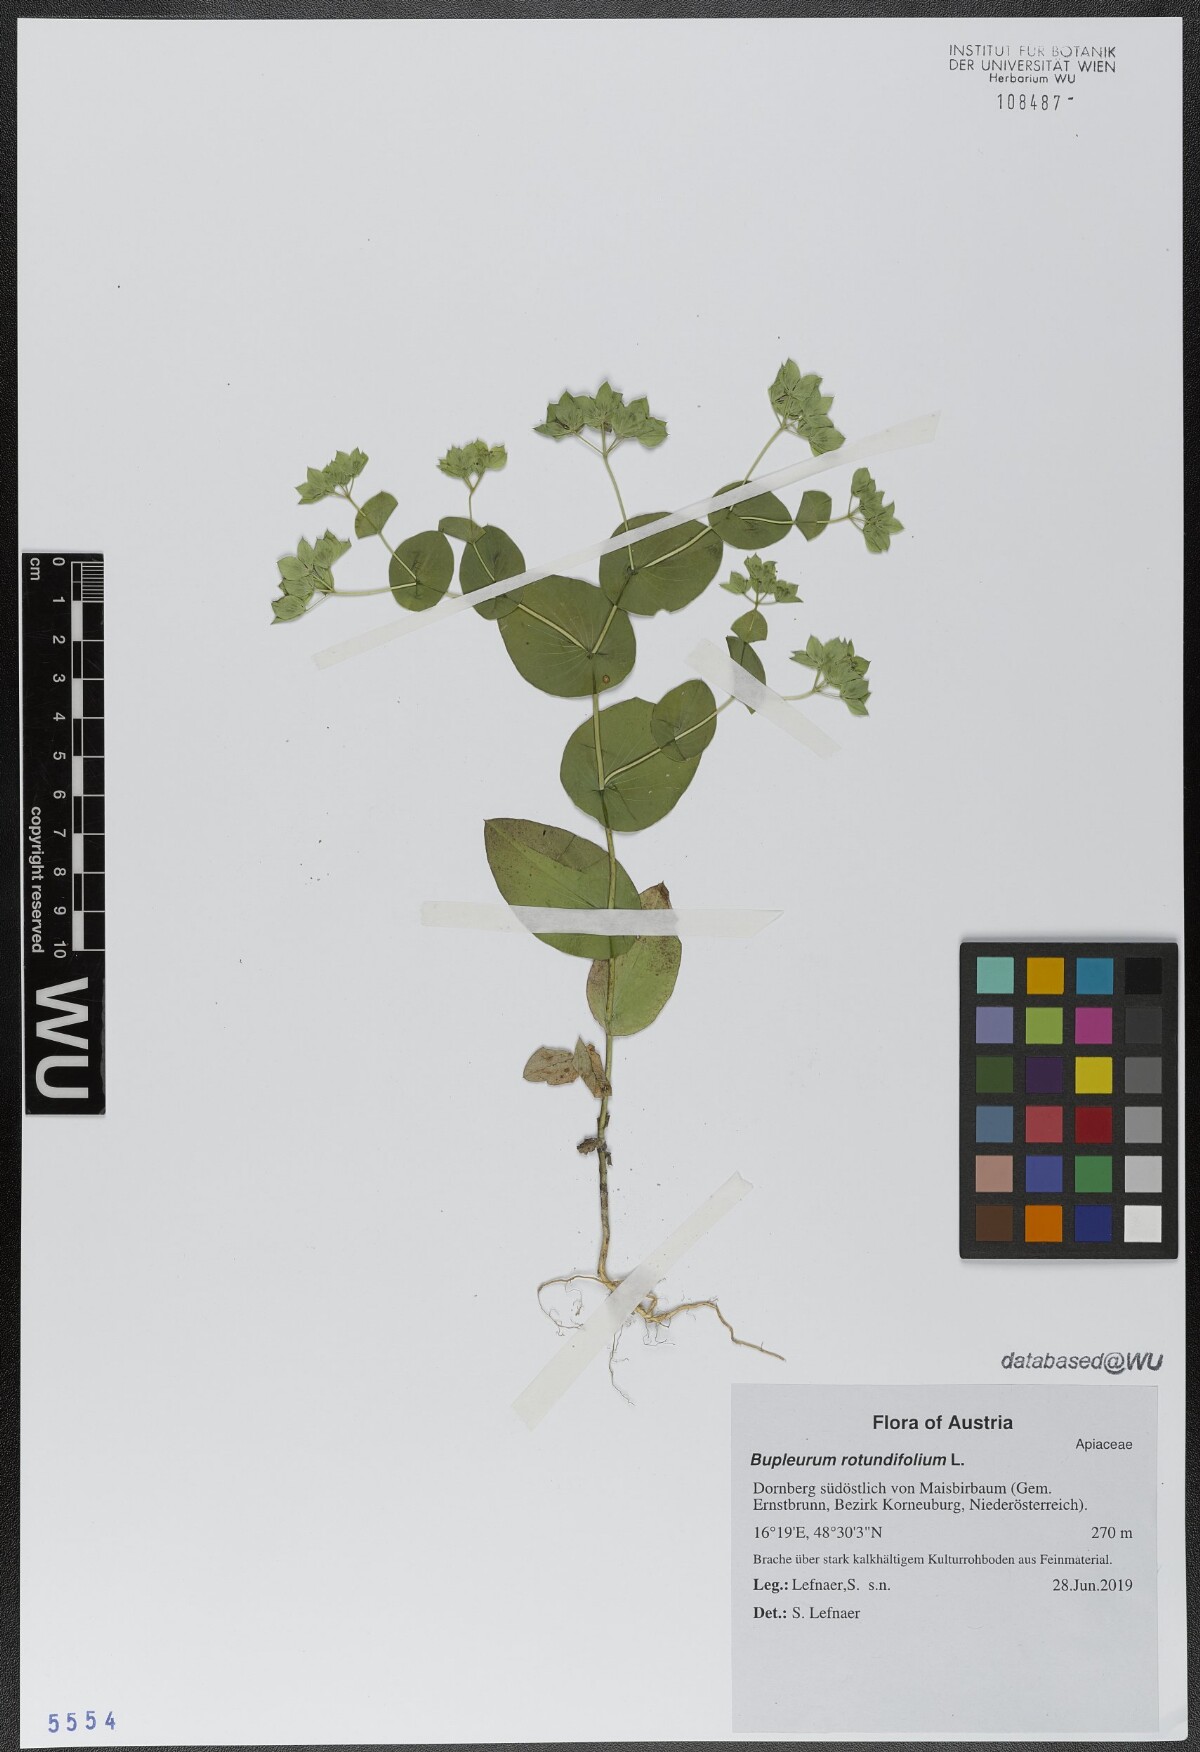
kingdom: Plantae
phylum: Tracheophyta
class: Magnoliopsida
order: Apiales
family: Apiaceae
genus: Bupleurum
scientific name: Bupleurum rotundifolium
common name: Thorow-wax
